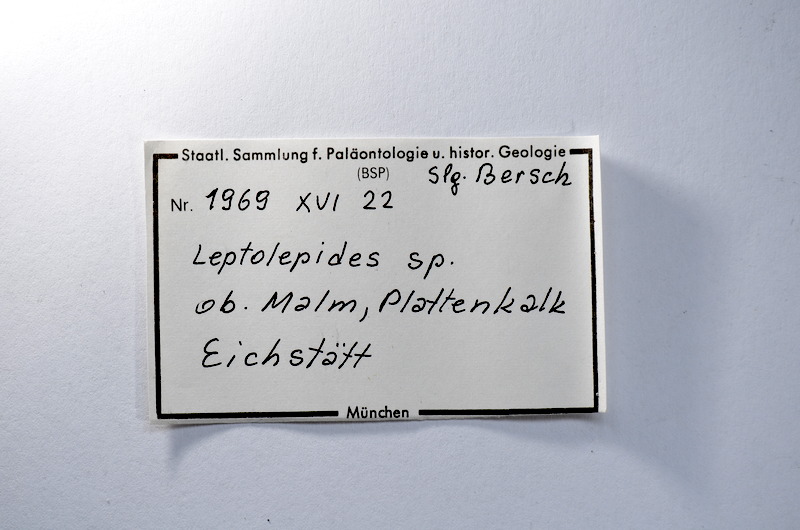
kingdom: Animalia
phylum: Chordata
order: Salmoniformes
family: Orthogonikleithridae
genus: Leptolepides
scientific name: Leptolepides
